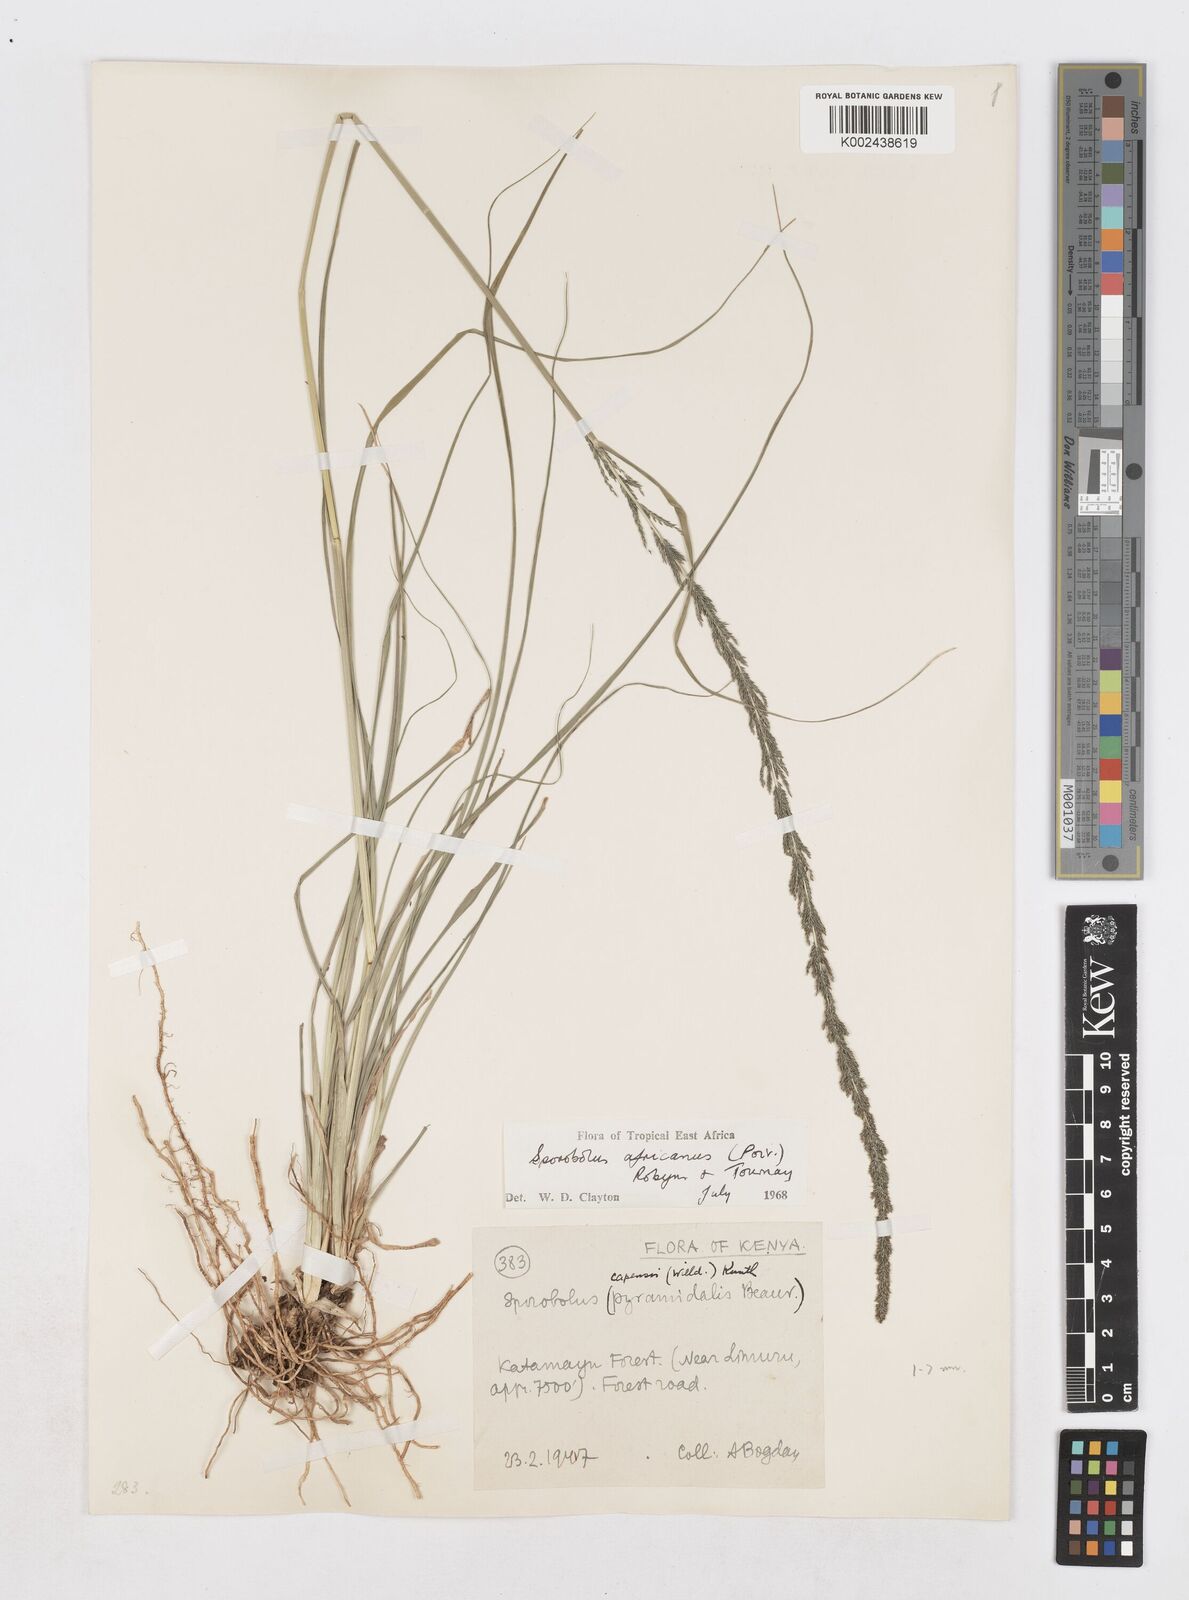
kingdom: Plantae
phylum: Tracheophyta
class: Liliopsida
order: Poales
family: Poaceae
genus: Sporobolus
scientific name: Sporobolus africanus
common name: African dropseed
